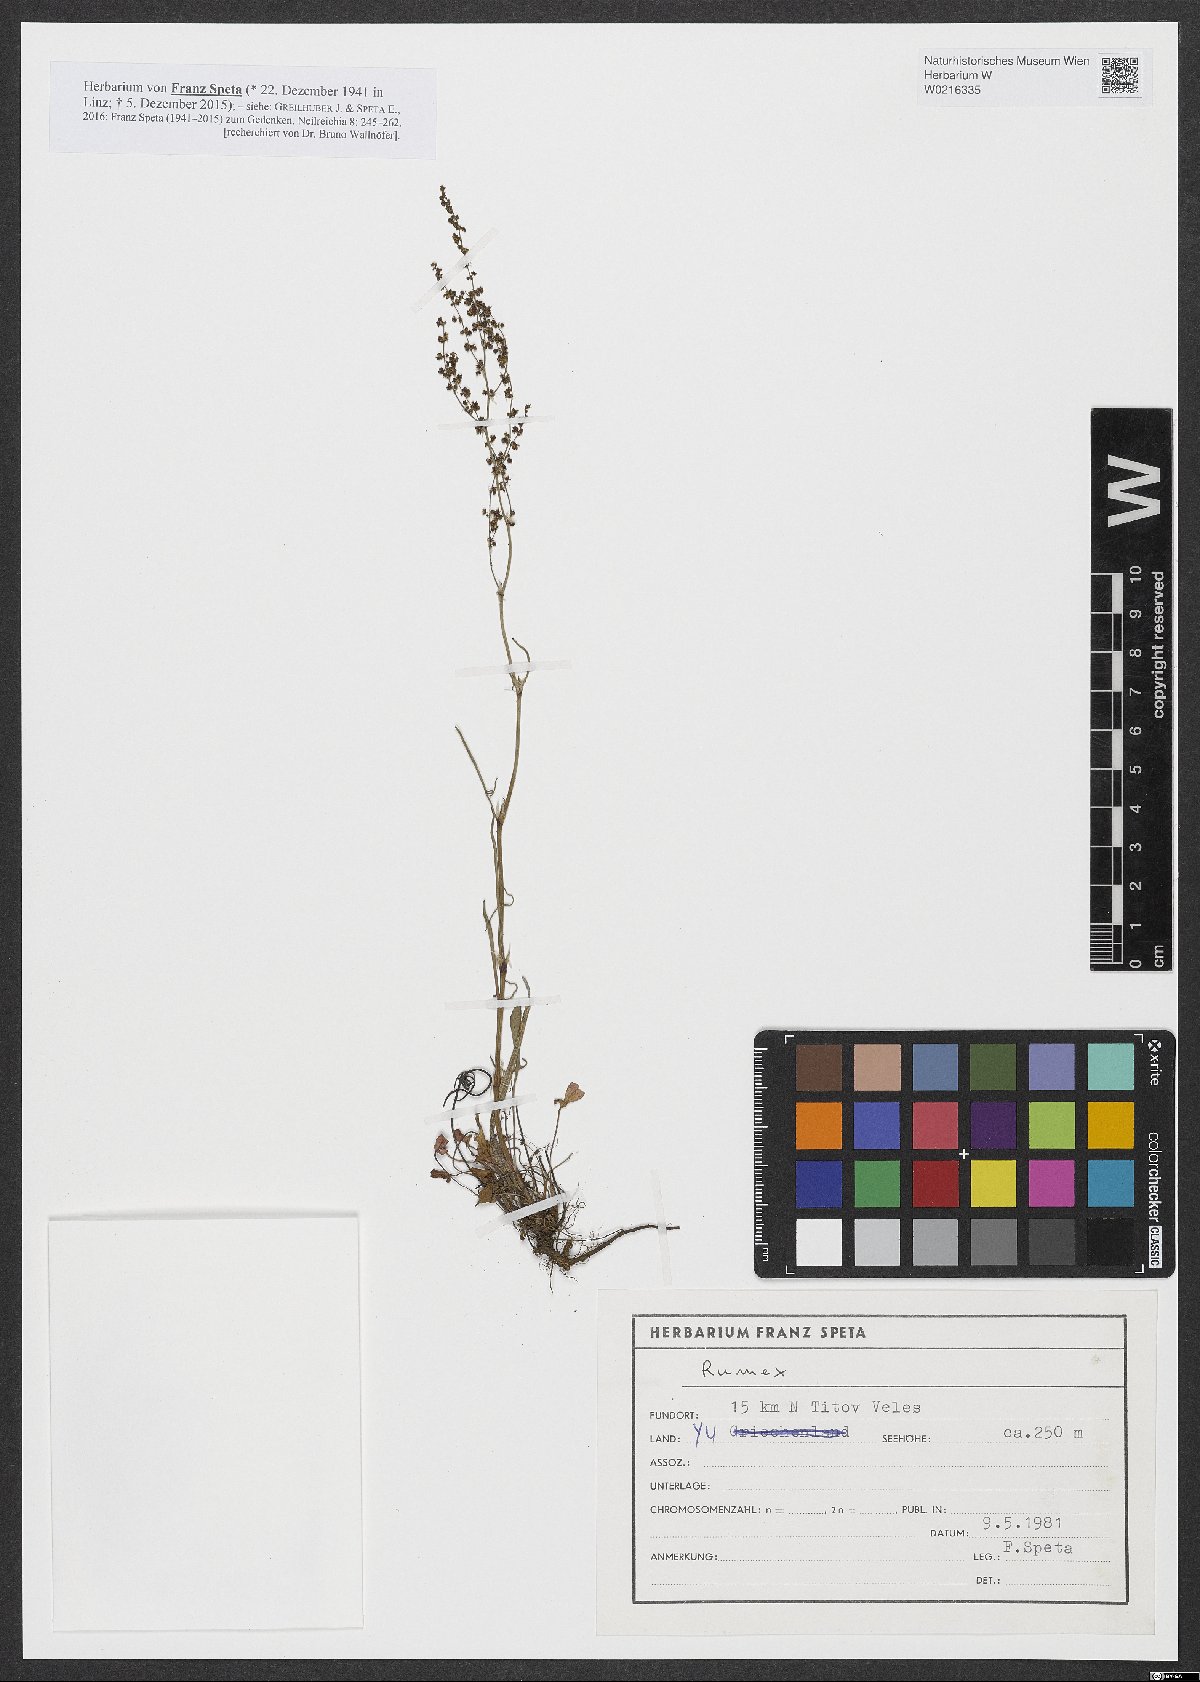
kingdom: Plantae
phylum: Tracheophyta
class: Magnoliopsida
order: Caryophyllales
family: Polygonaceae
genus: Rumex
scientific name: Rumex
